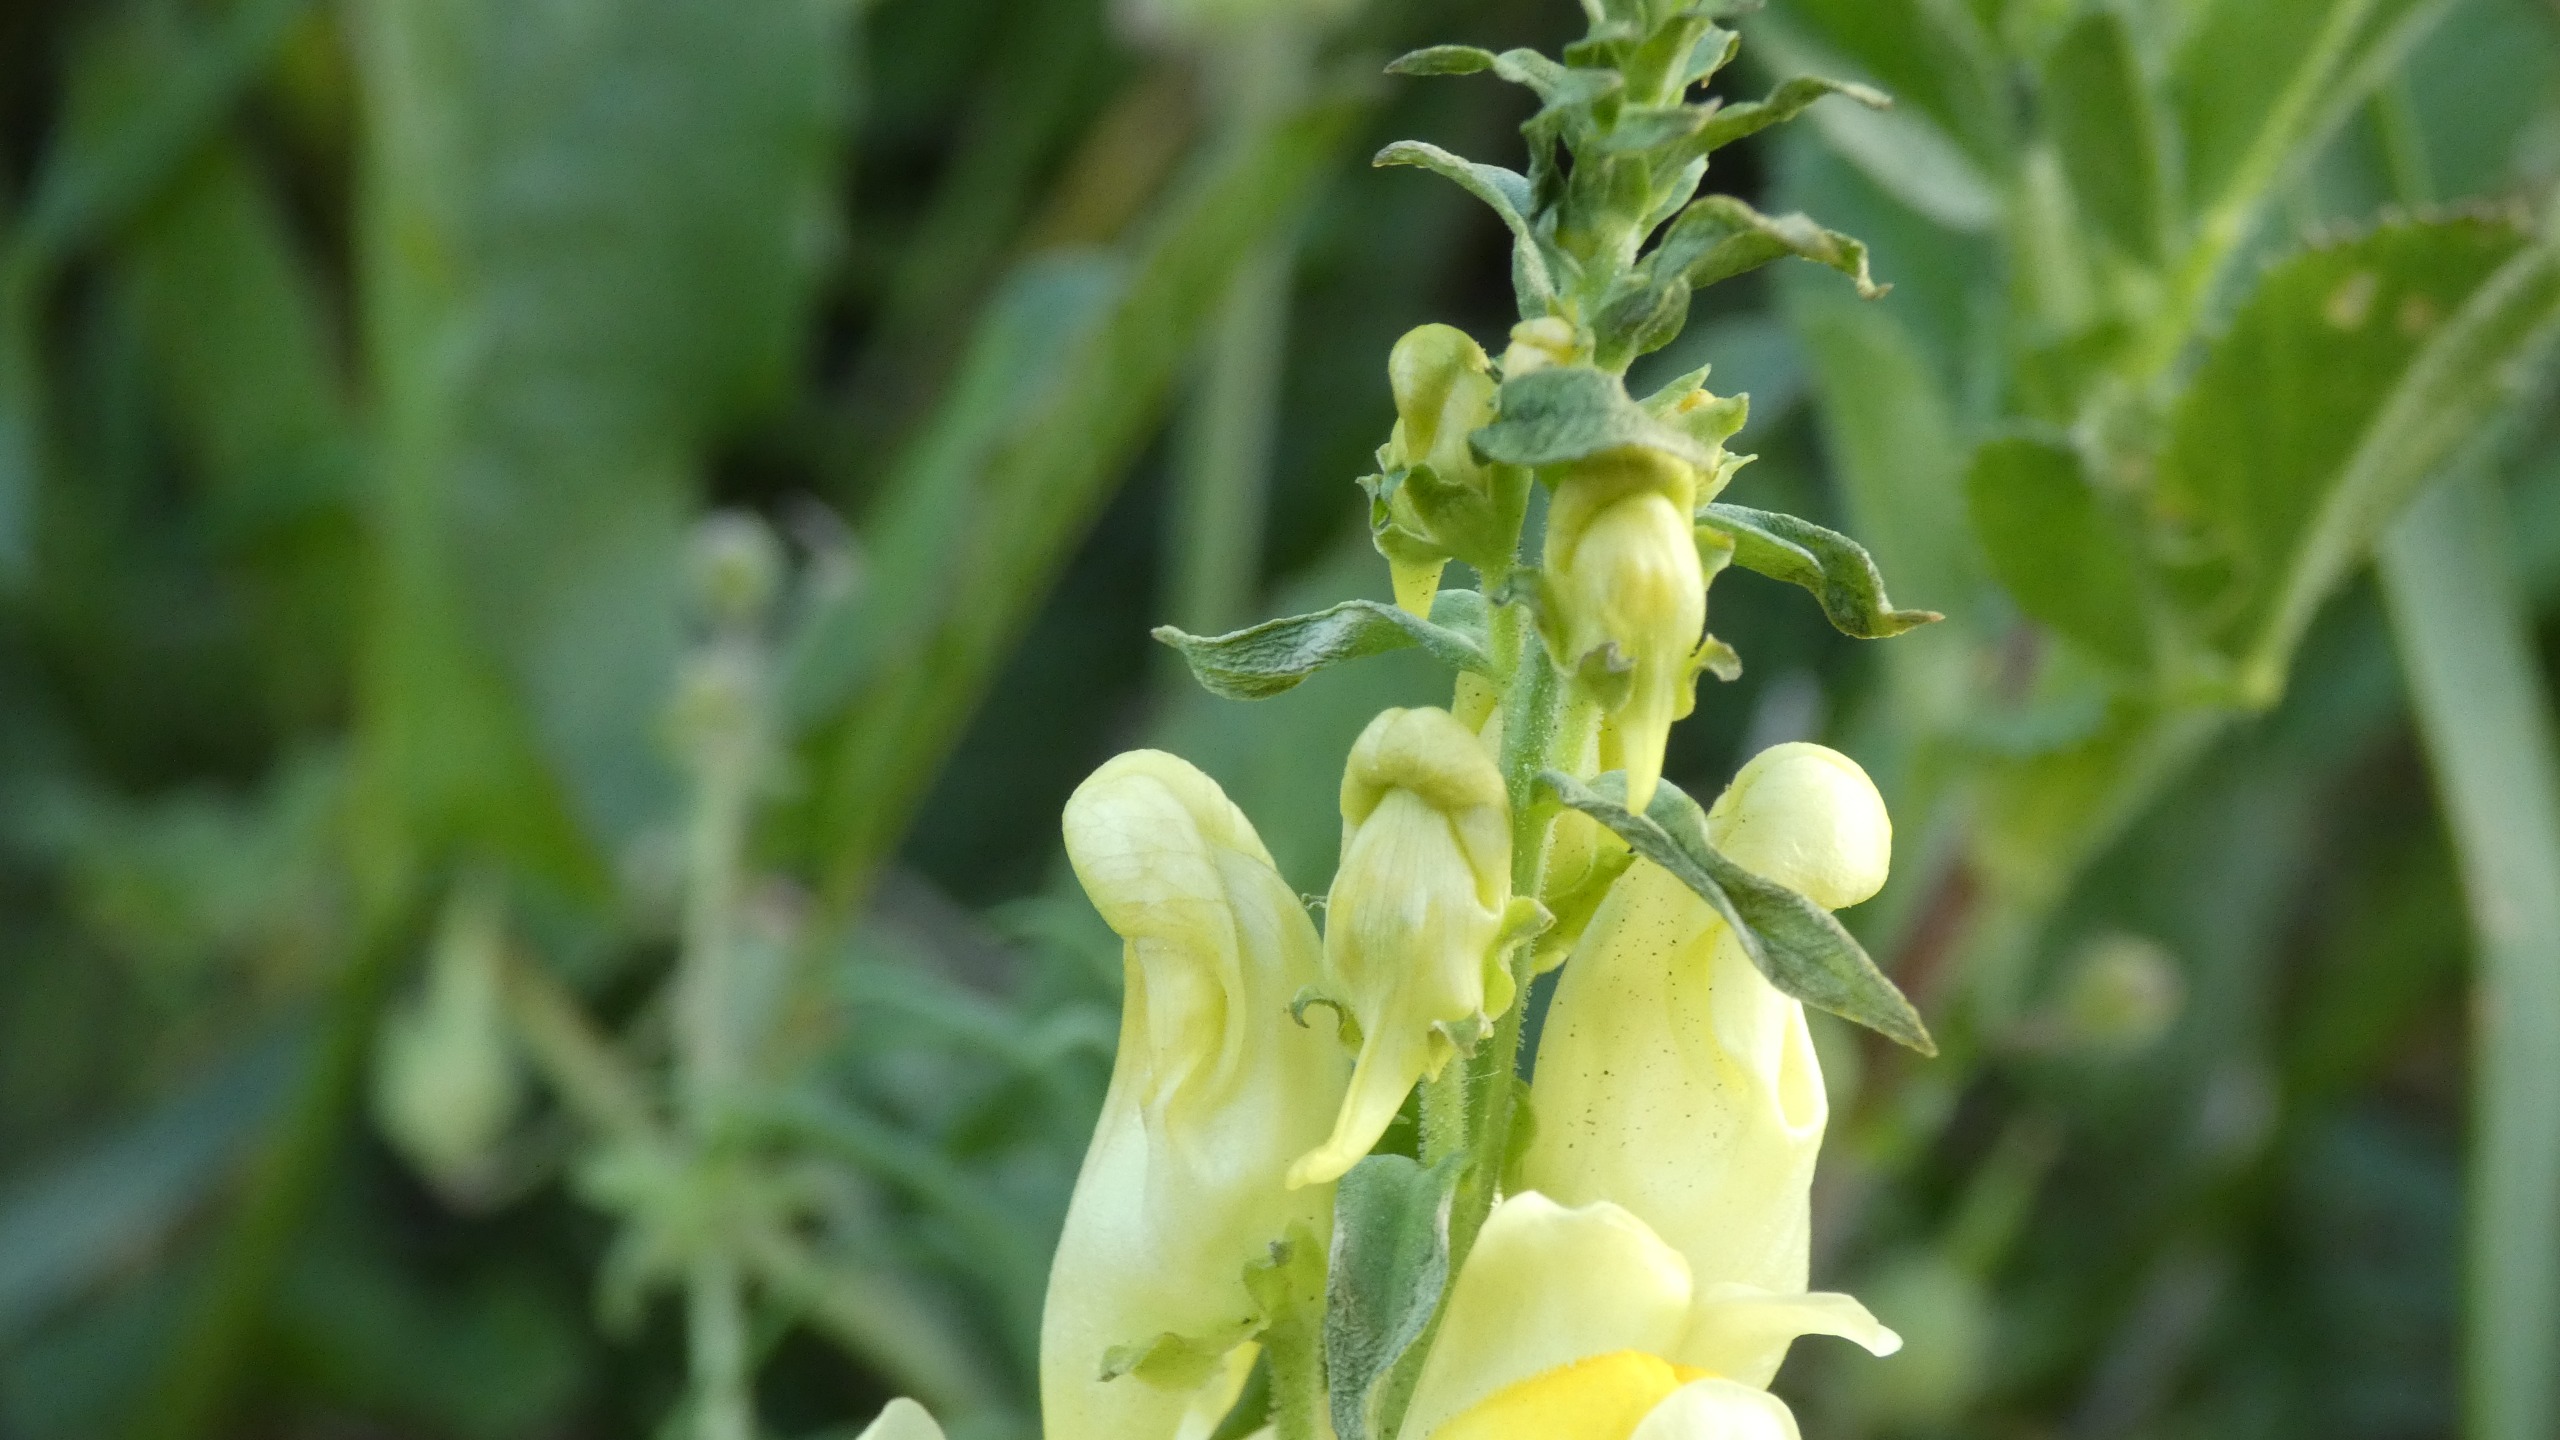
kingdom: Plantae
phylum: Tracheophyta
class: Magnoliopsida
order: Lamiales
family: Plantaginaceae
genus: Linaria
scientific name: Linaria vulgaris
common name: Almindelig torskemund
